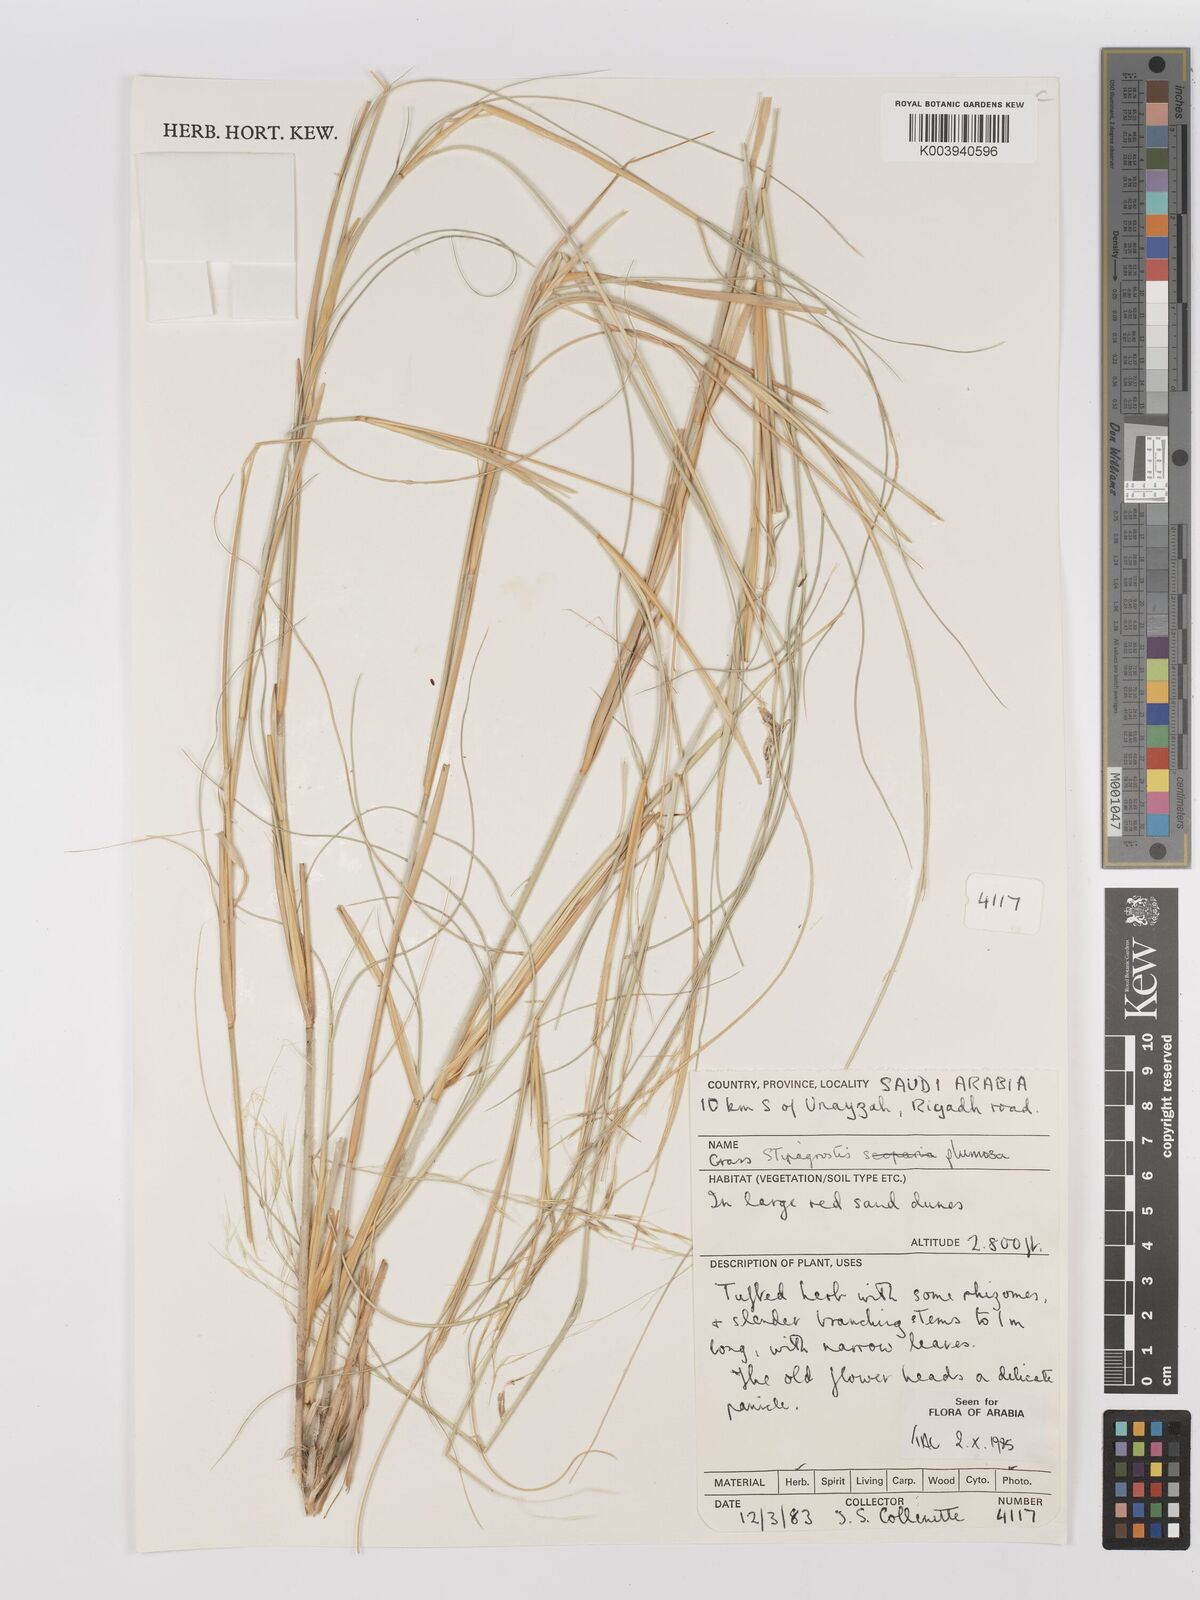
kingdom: Plantae
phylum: Tracheophyta
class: Liliopsida
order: Poales
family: Poaceae
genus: Stipagrostis
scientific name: Stipagrostis plumosa
